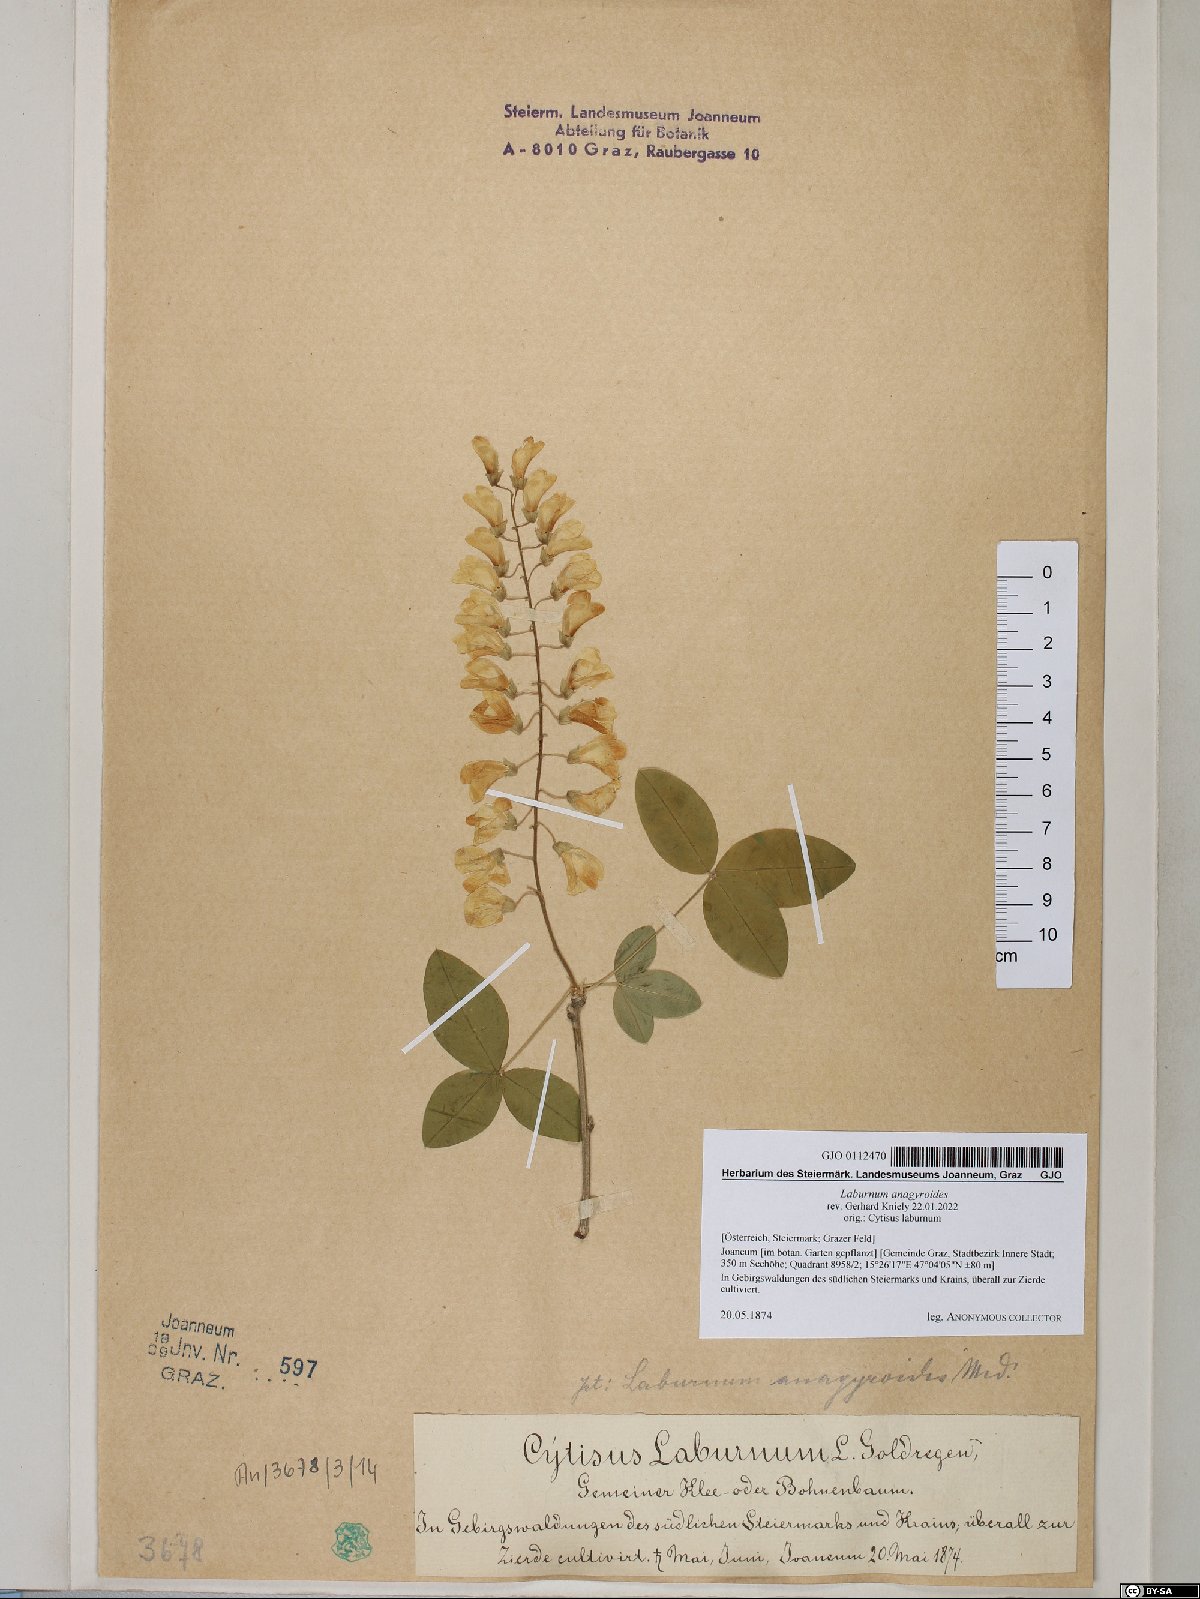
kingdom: Plantae
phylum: Tracheophyta
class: Magnoliopsida
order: Fabales
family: Fabaceae
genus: Laburnum
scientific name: Laburnum anagyroides
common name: Laburnum
